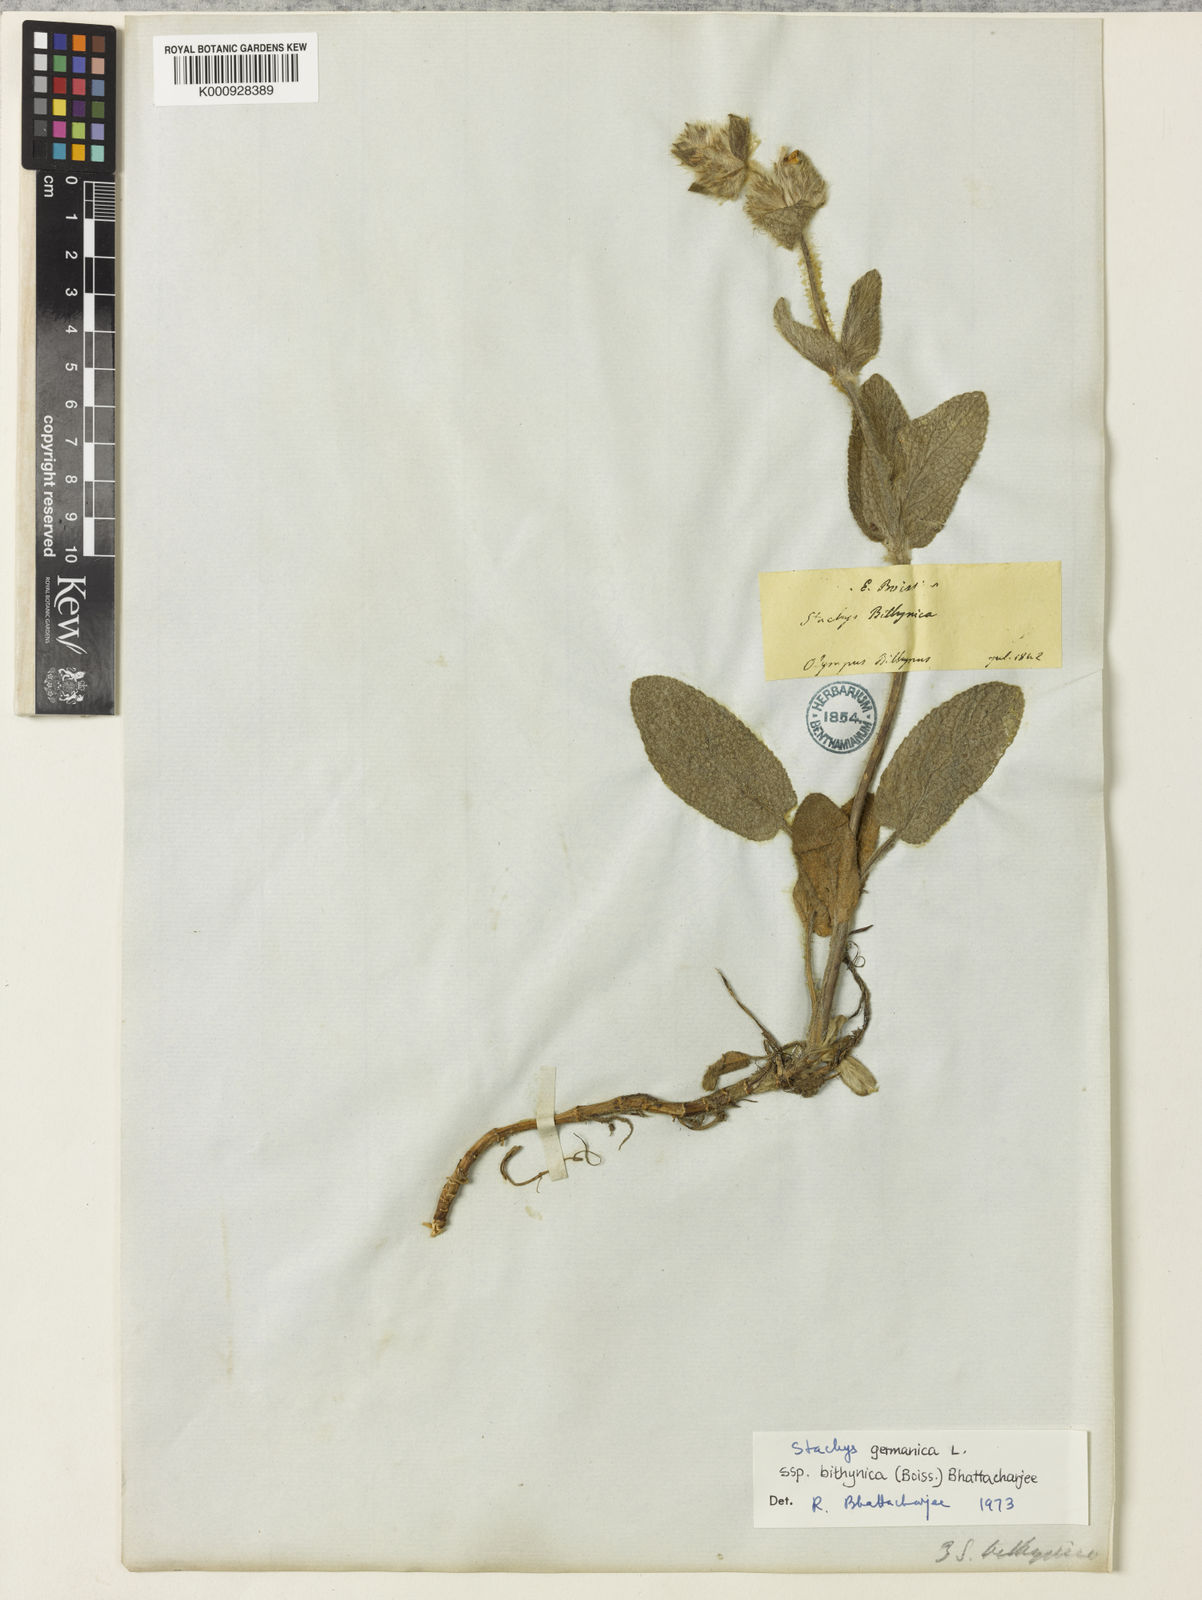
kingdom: Plantae
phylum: Tracheophyta
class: Magnoliopsida
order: Lamiales
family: Lamiaceae
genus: Stachys
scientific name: Stachys bithynica
